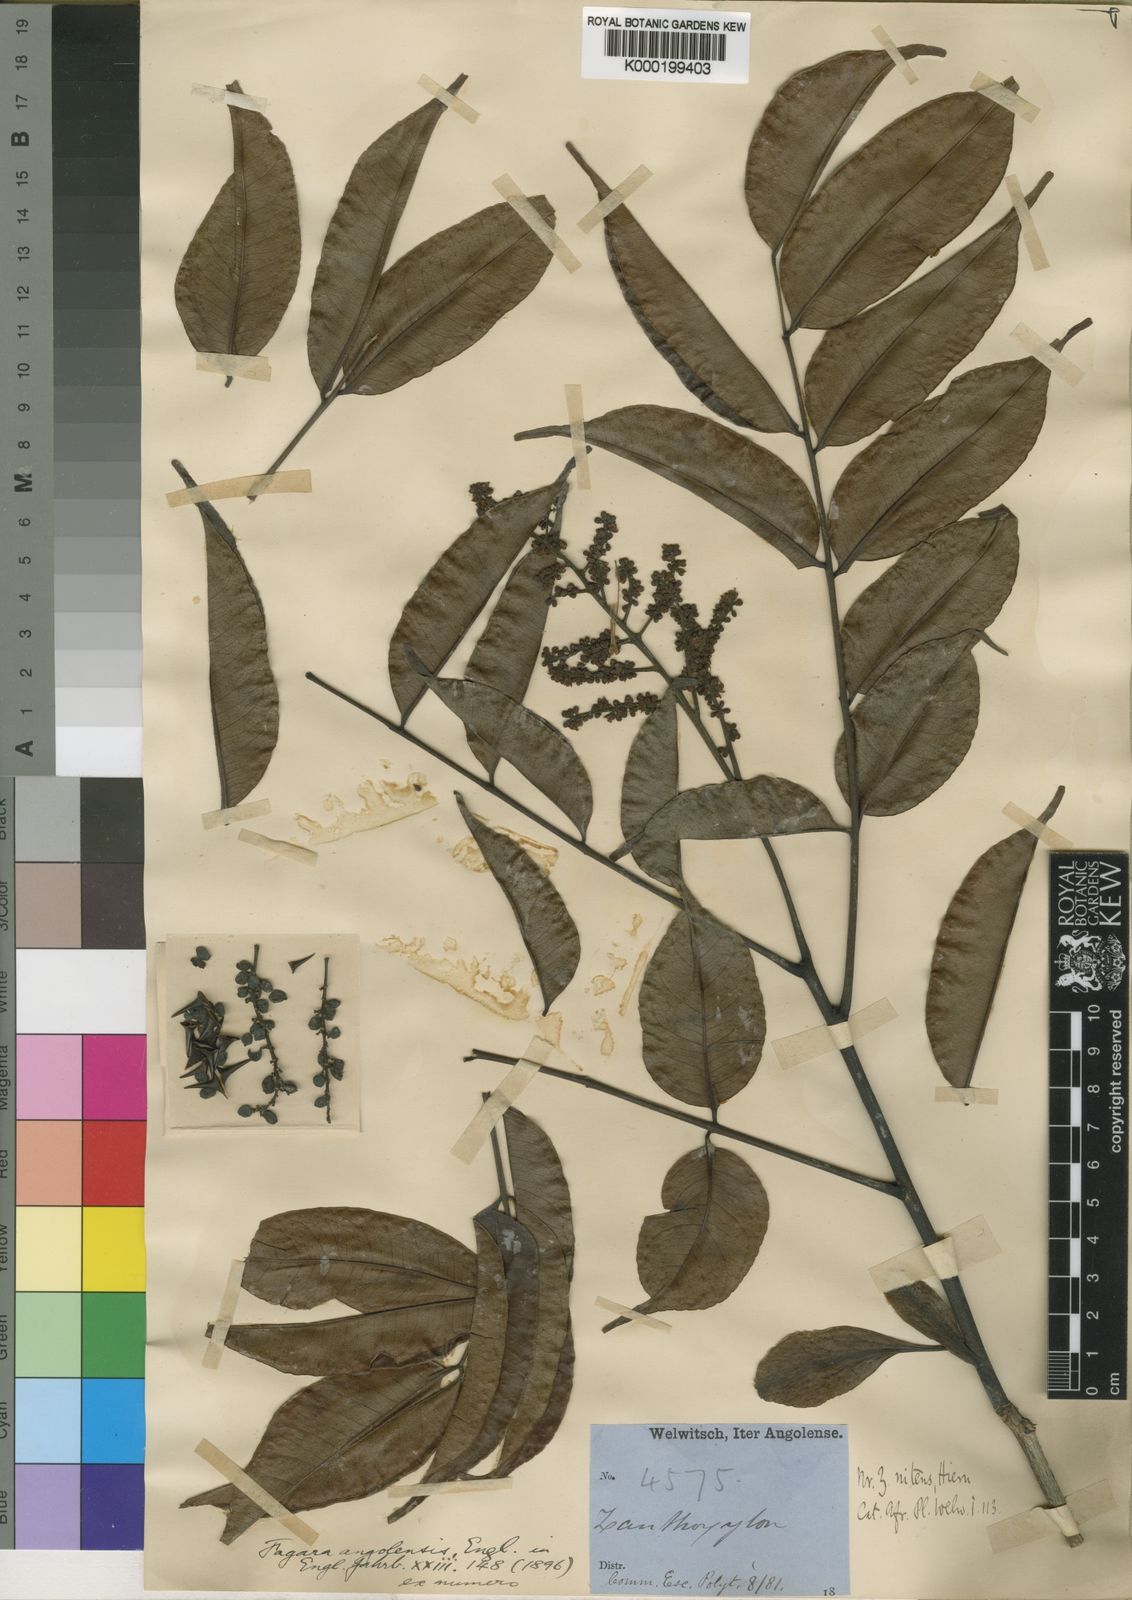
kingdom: Plantae
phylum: Tracheophyta
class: Magnoliopsida
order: Sapindales
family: Rutaceae
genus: Zanthoxylum
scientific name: Zanthoxylum leprieurii
